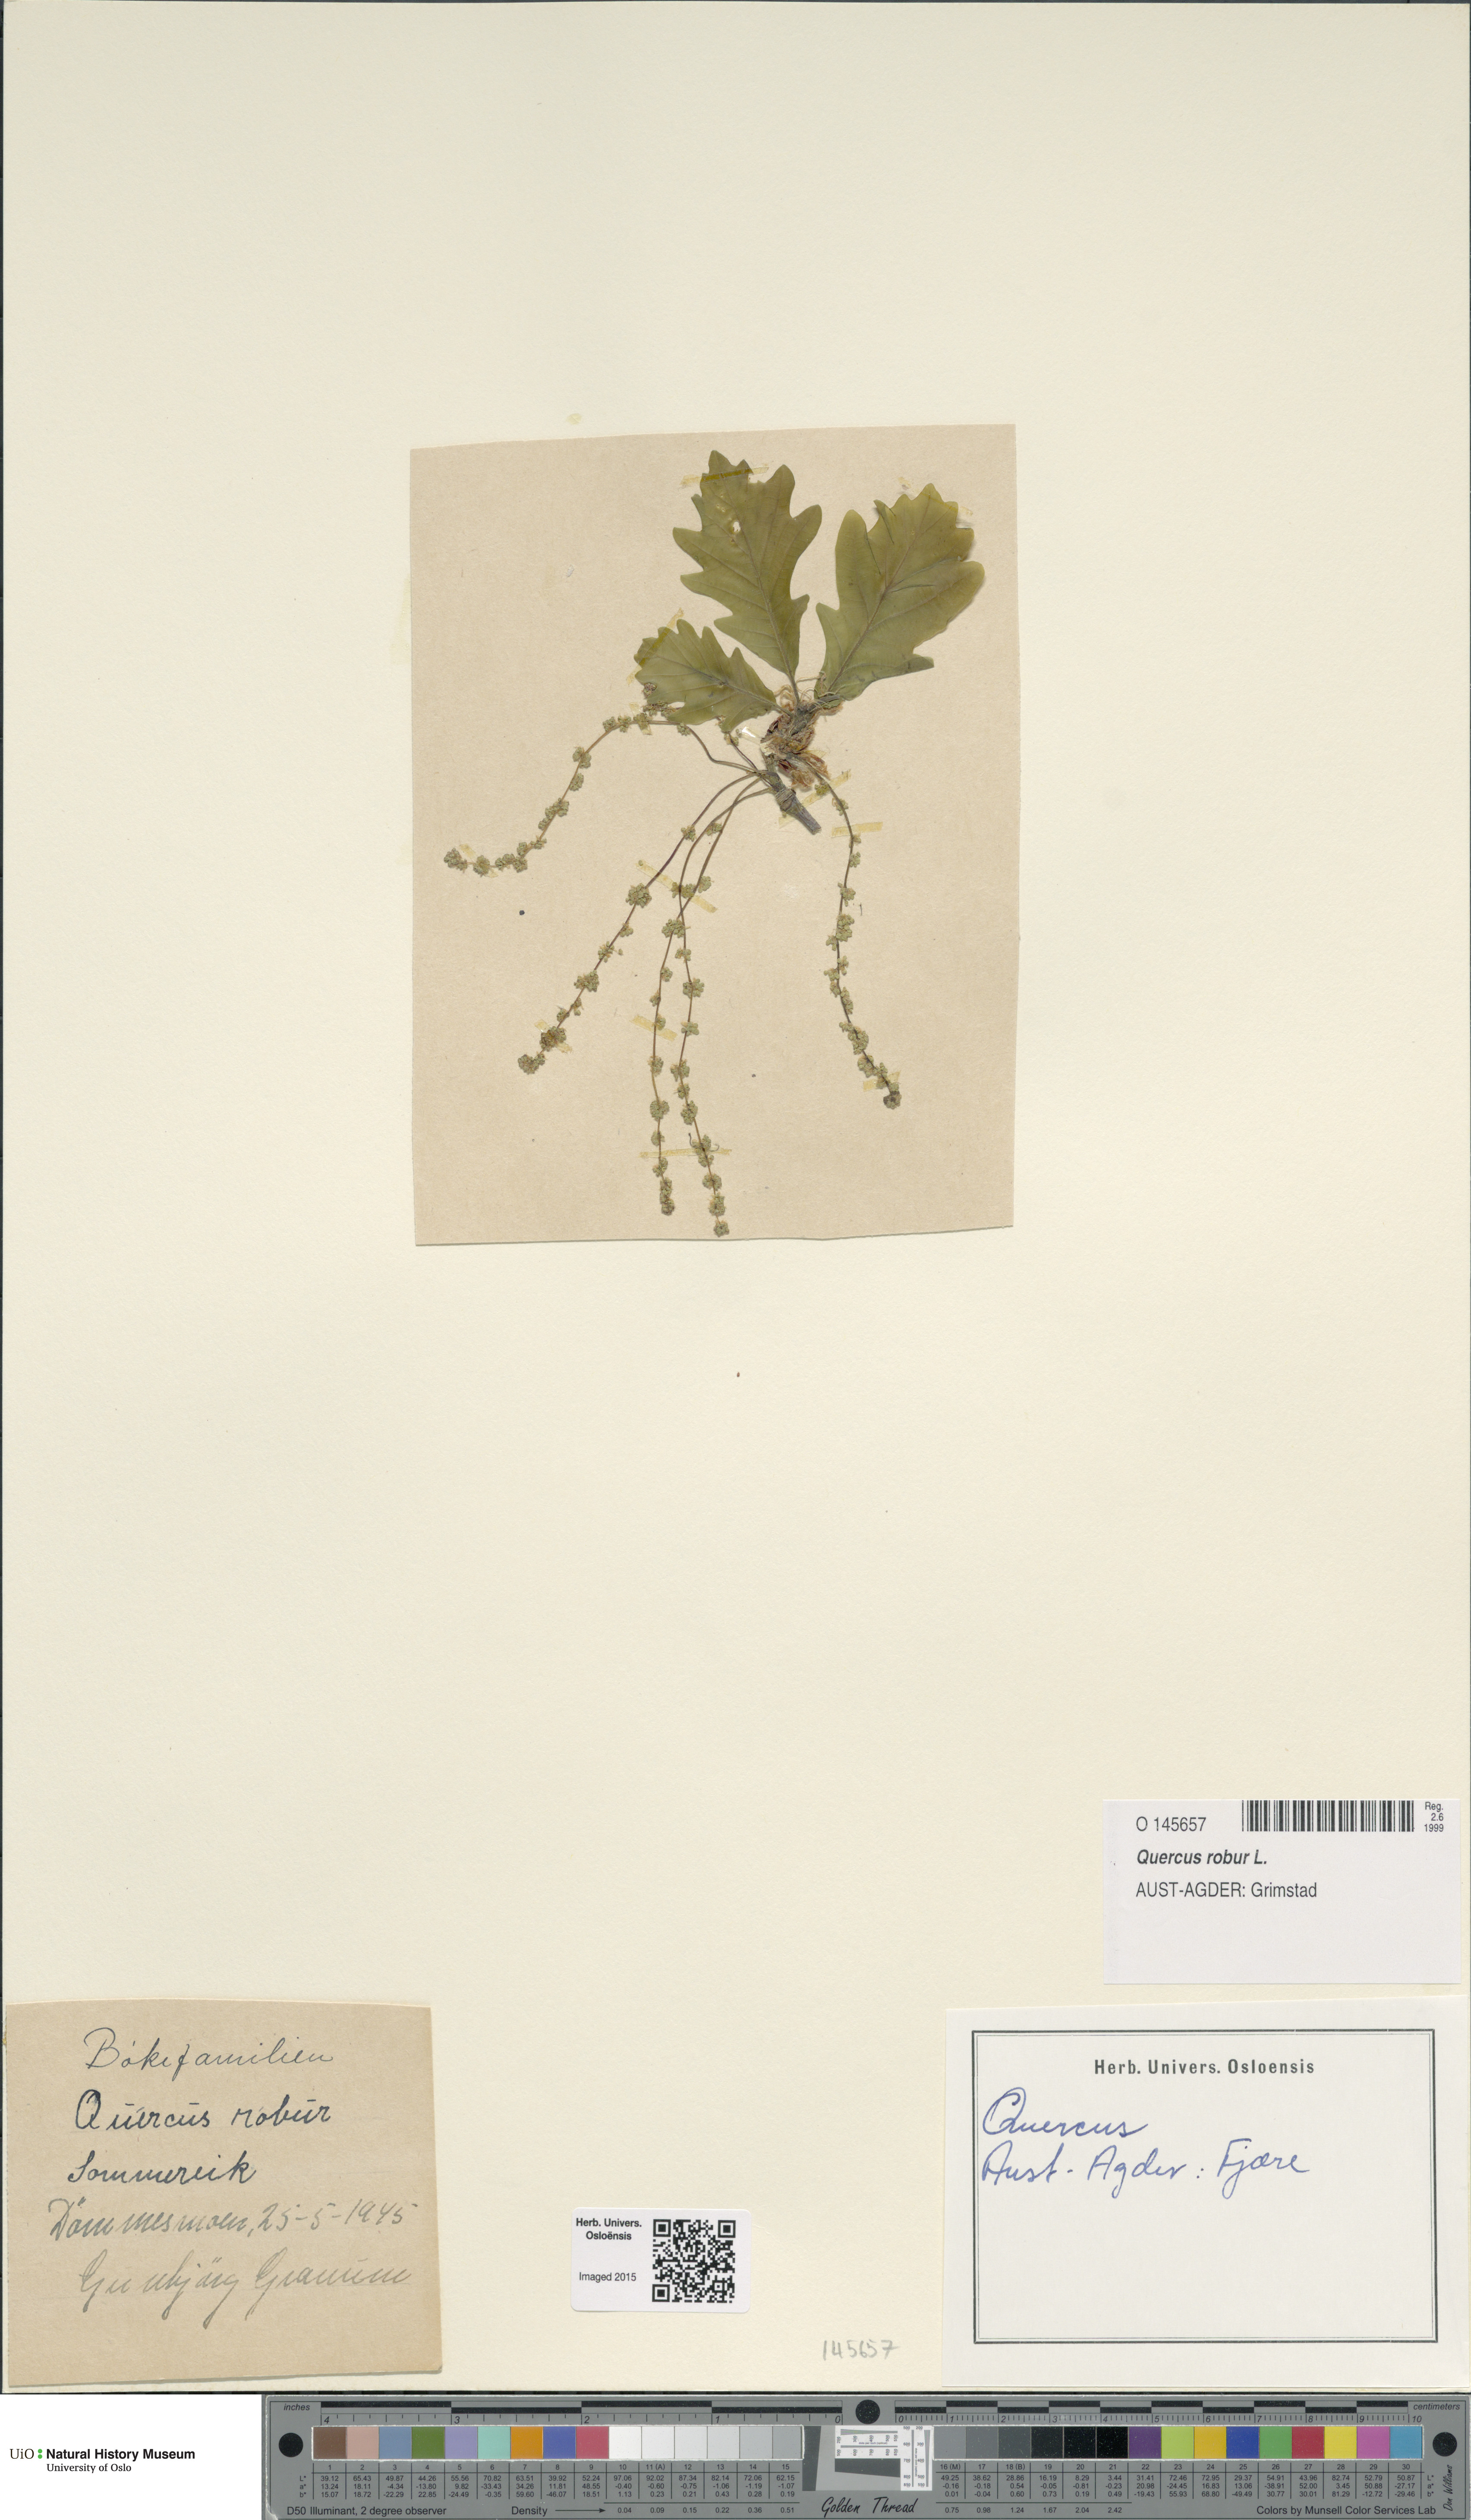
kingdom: Plantae
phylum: Tracheophyta
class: Magnoliopsida
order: Fagales
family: Fagaceae
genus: Quercus
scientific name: Quercus robur
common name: Pedunculate oak
